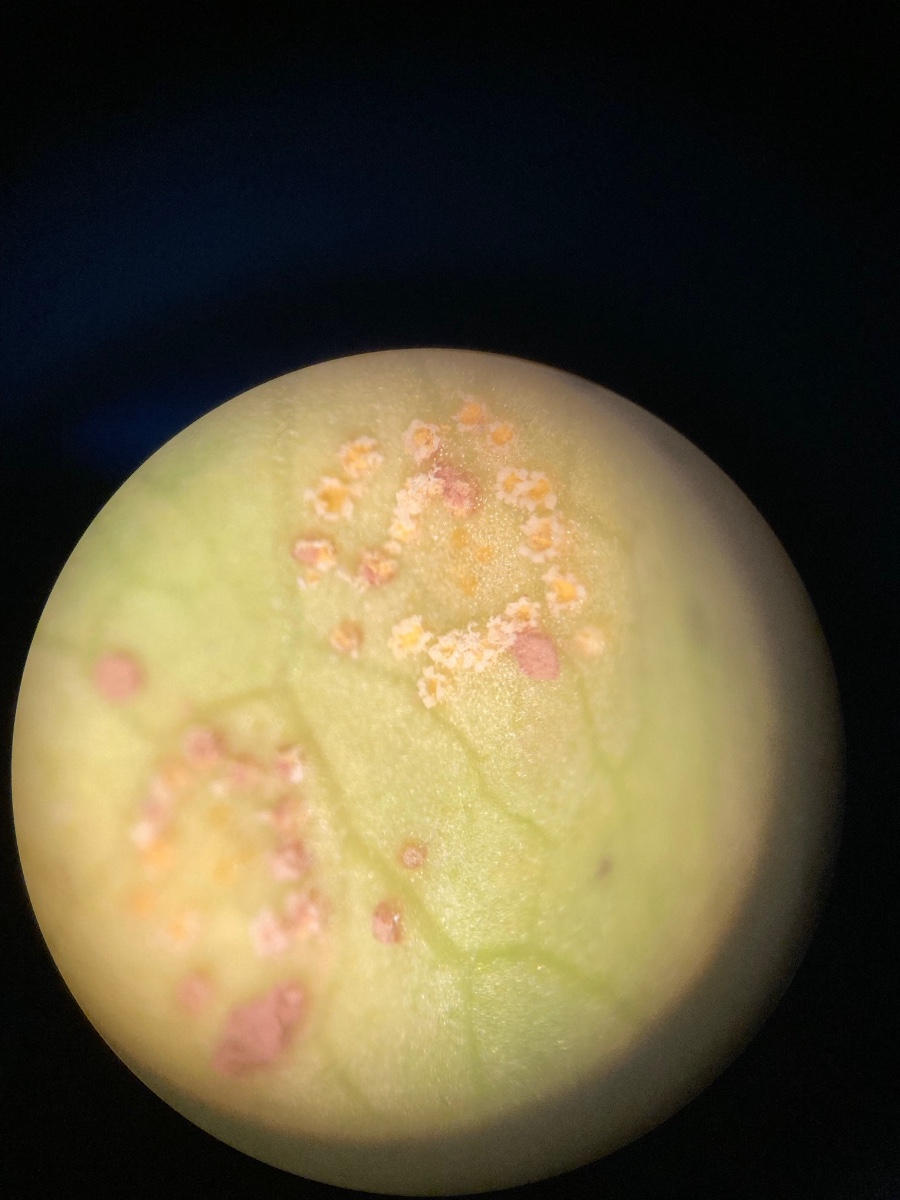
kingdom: Fungi
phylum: Basidiomycota
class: Pucciniomycetes
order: Pucciniales
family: Pucciniaceae
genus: Puccinia
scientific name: Puccinia convolvuli
